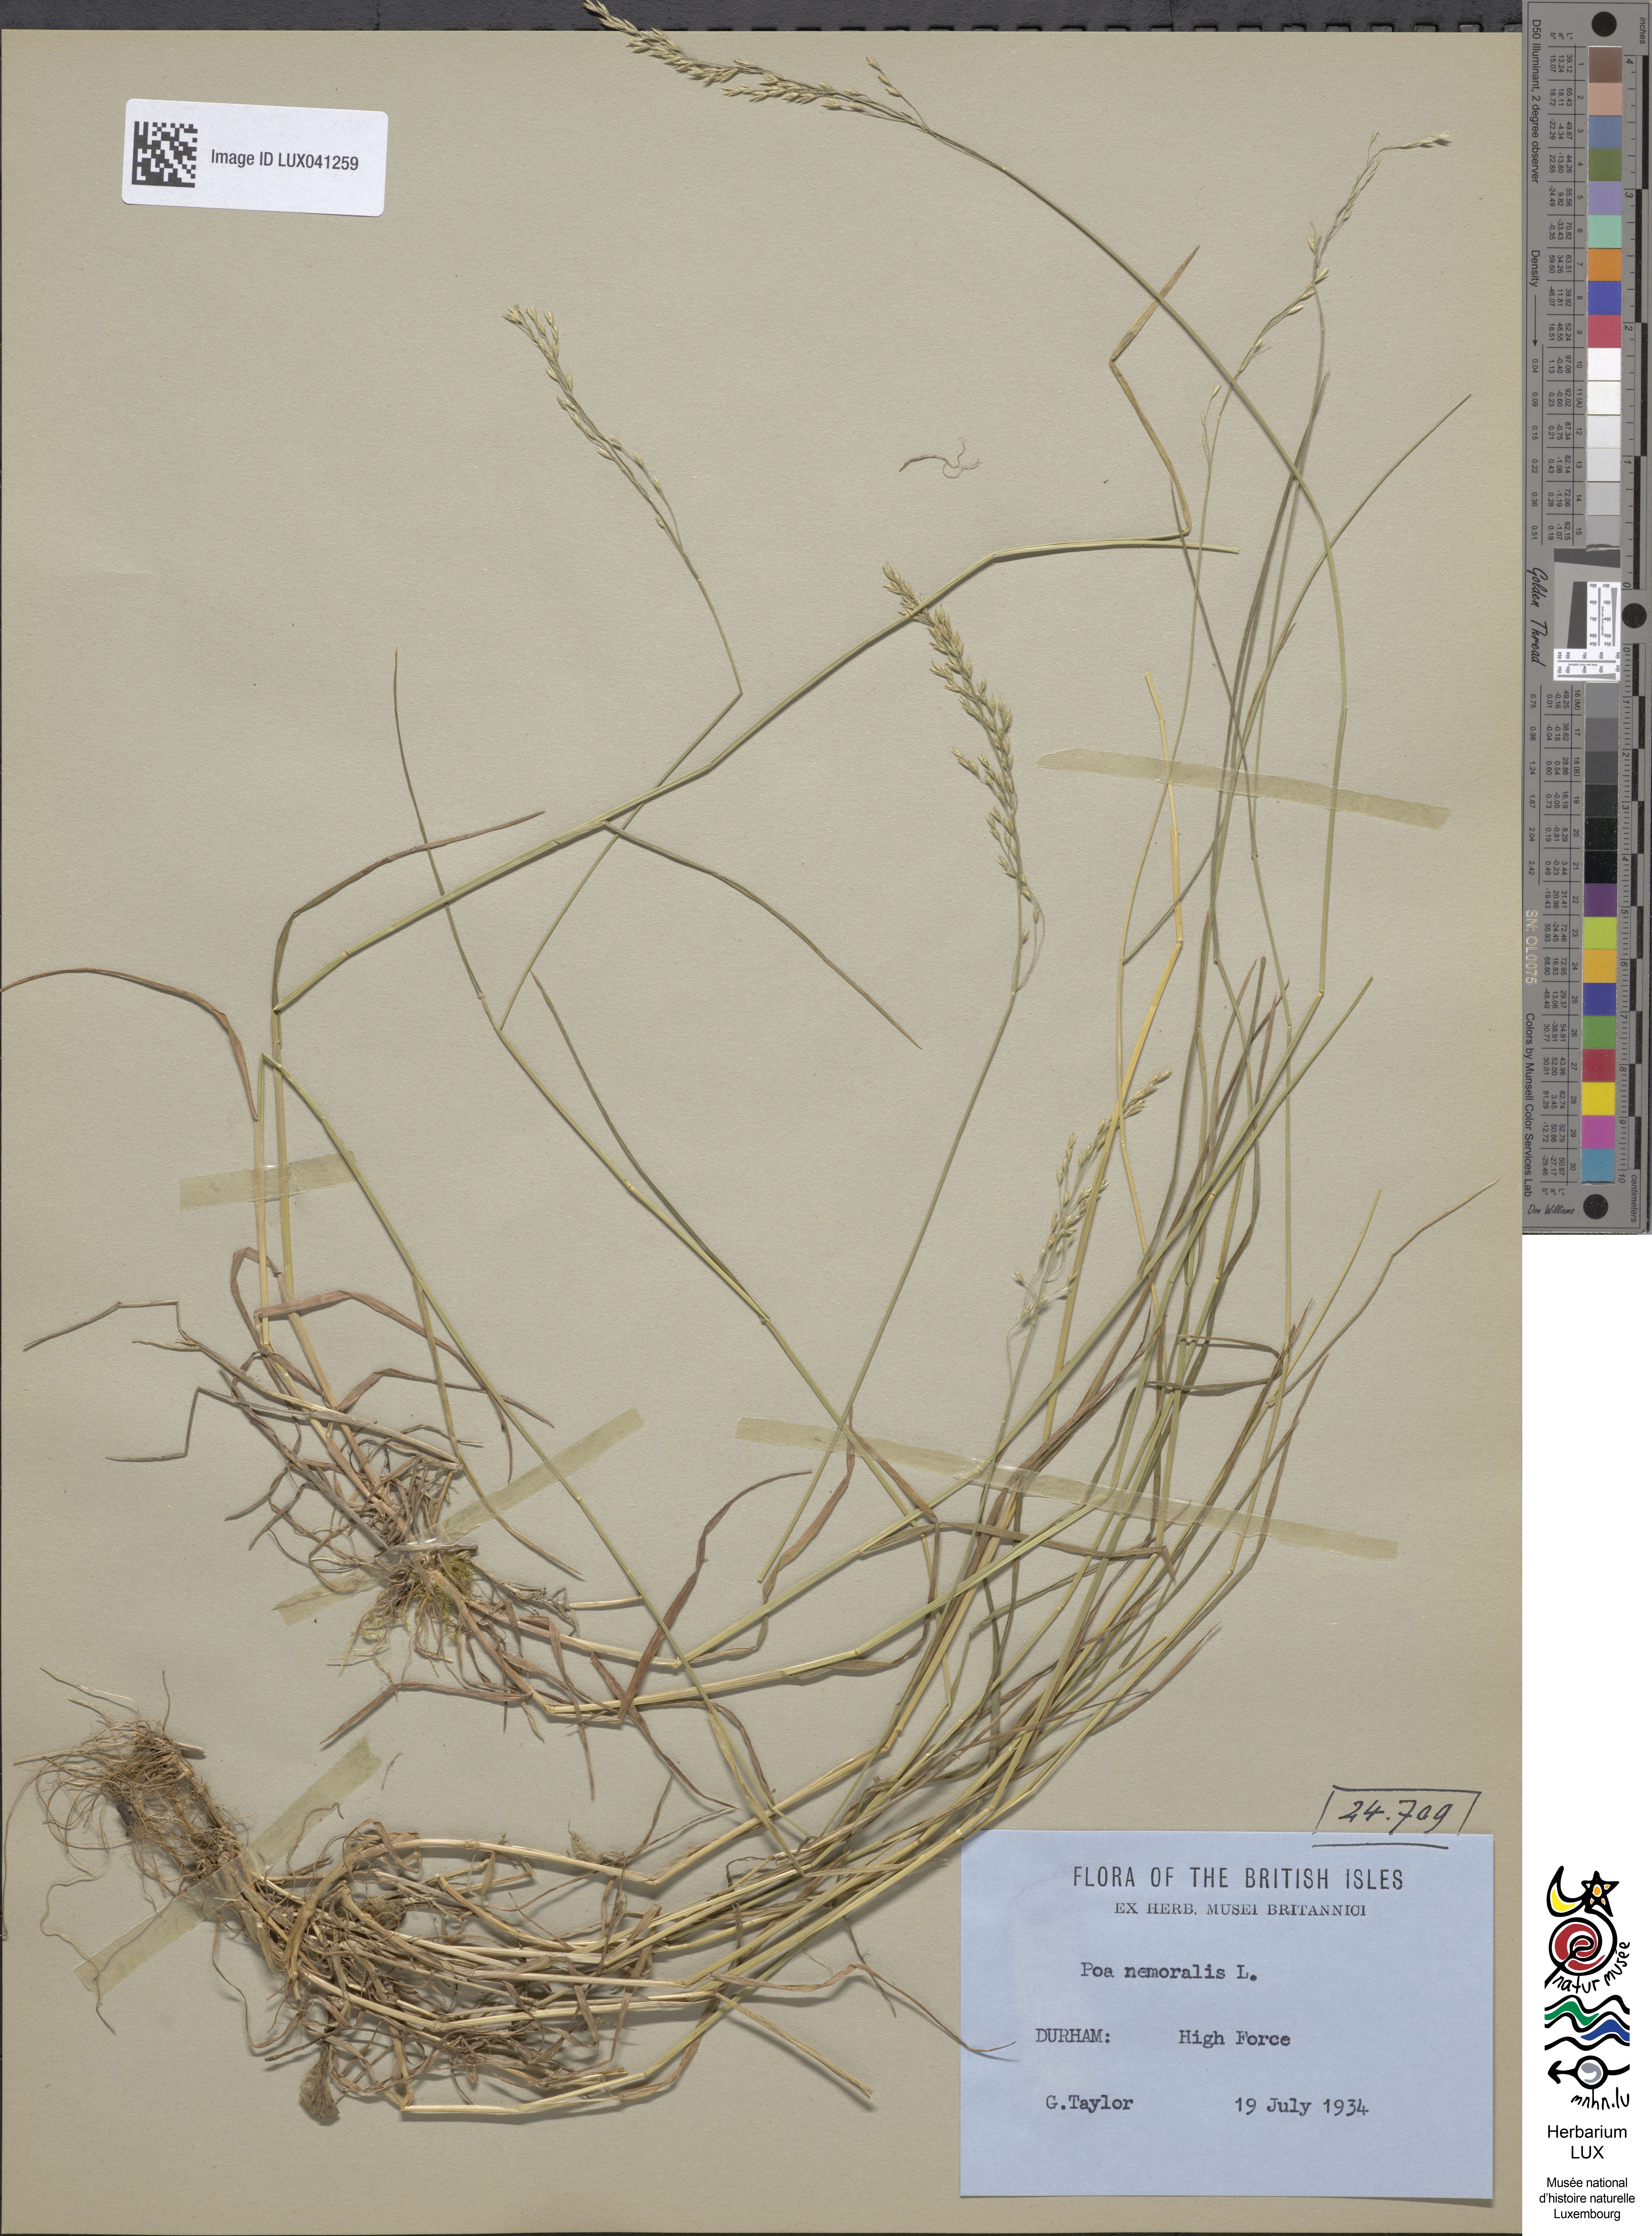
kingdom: Plantae
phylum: Tracheophyta
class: Liliopsida
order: Poales
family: Poaceae
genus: Poa
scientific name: Poa nemoralis
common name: Wood bluegrass
